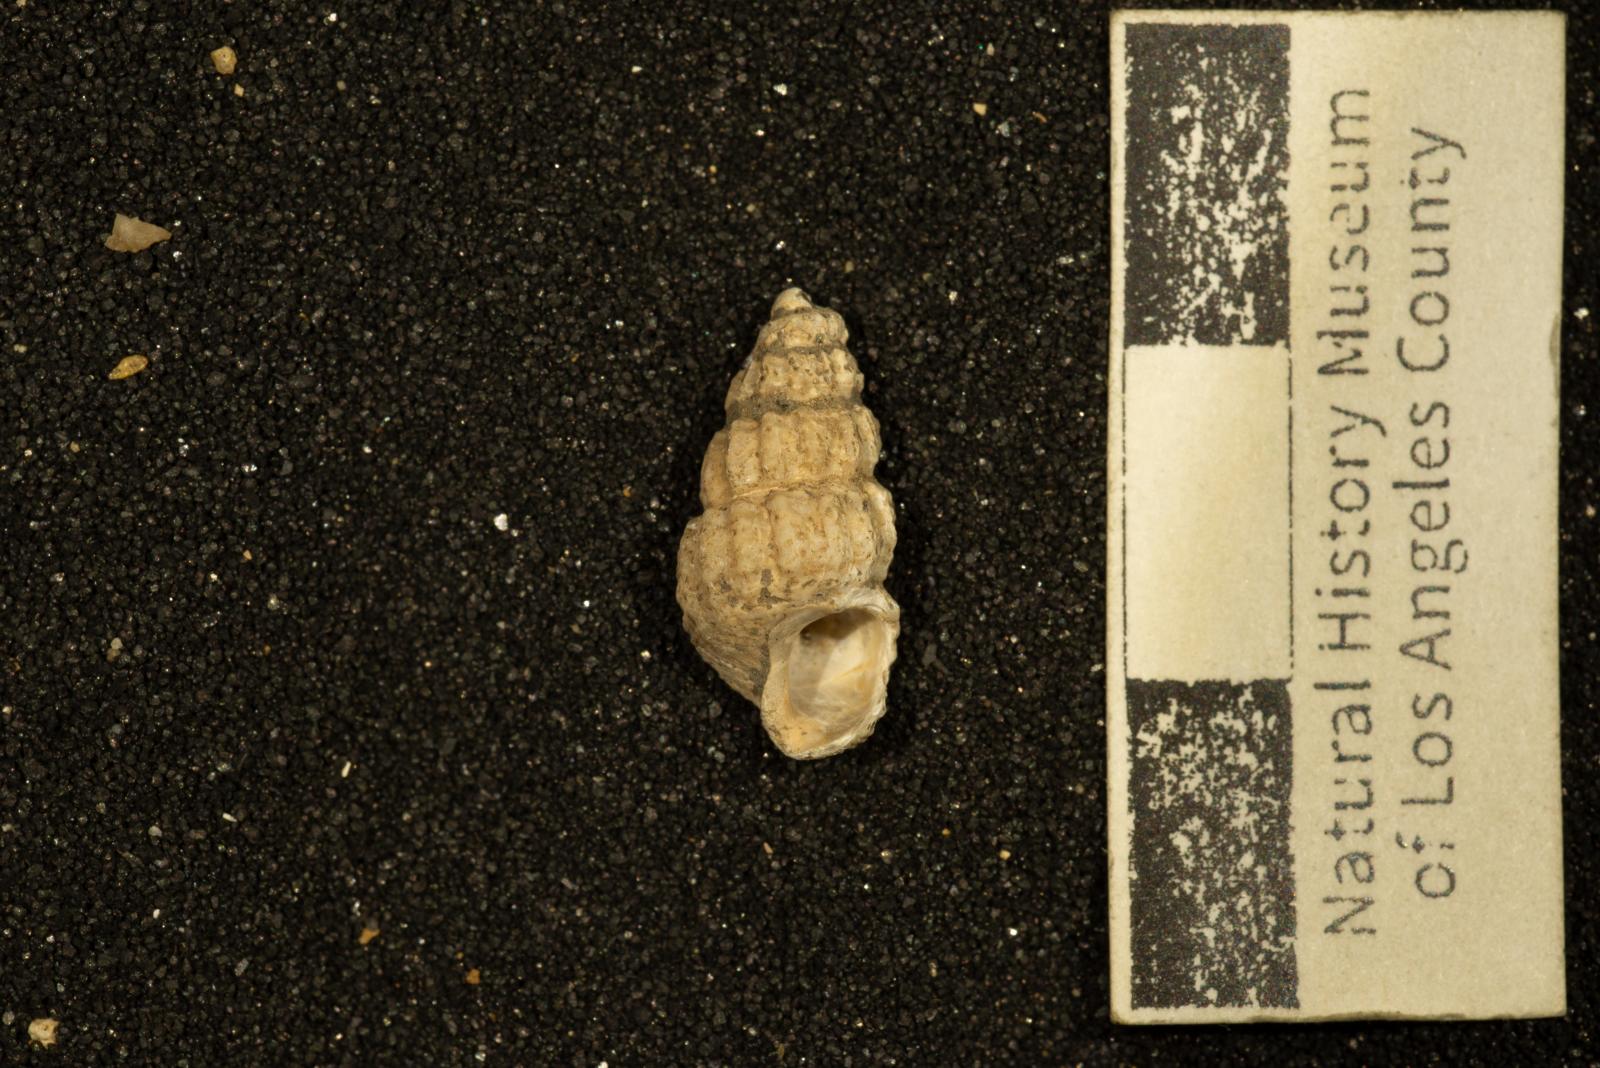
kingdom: Animalia
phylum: Mollusca
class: Gastropoda
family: Epitoniidae
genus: Belliscala
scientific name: Belliscala petra
